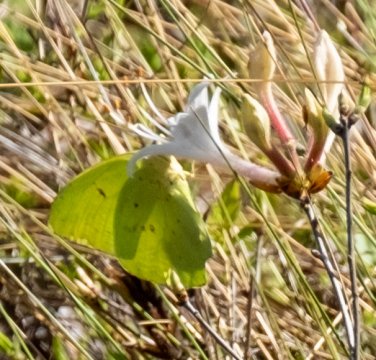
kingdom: Animalia
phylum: Arthropoda
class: Insecta
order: Lepidoptera
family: Pieridae
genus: Phoebis
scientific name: Phoebis sennae
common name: Cloudless Sulphur
